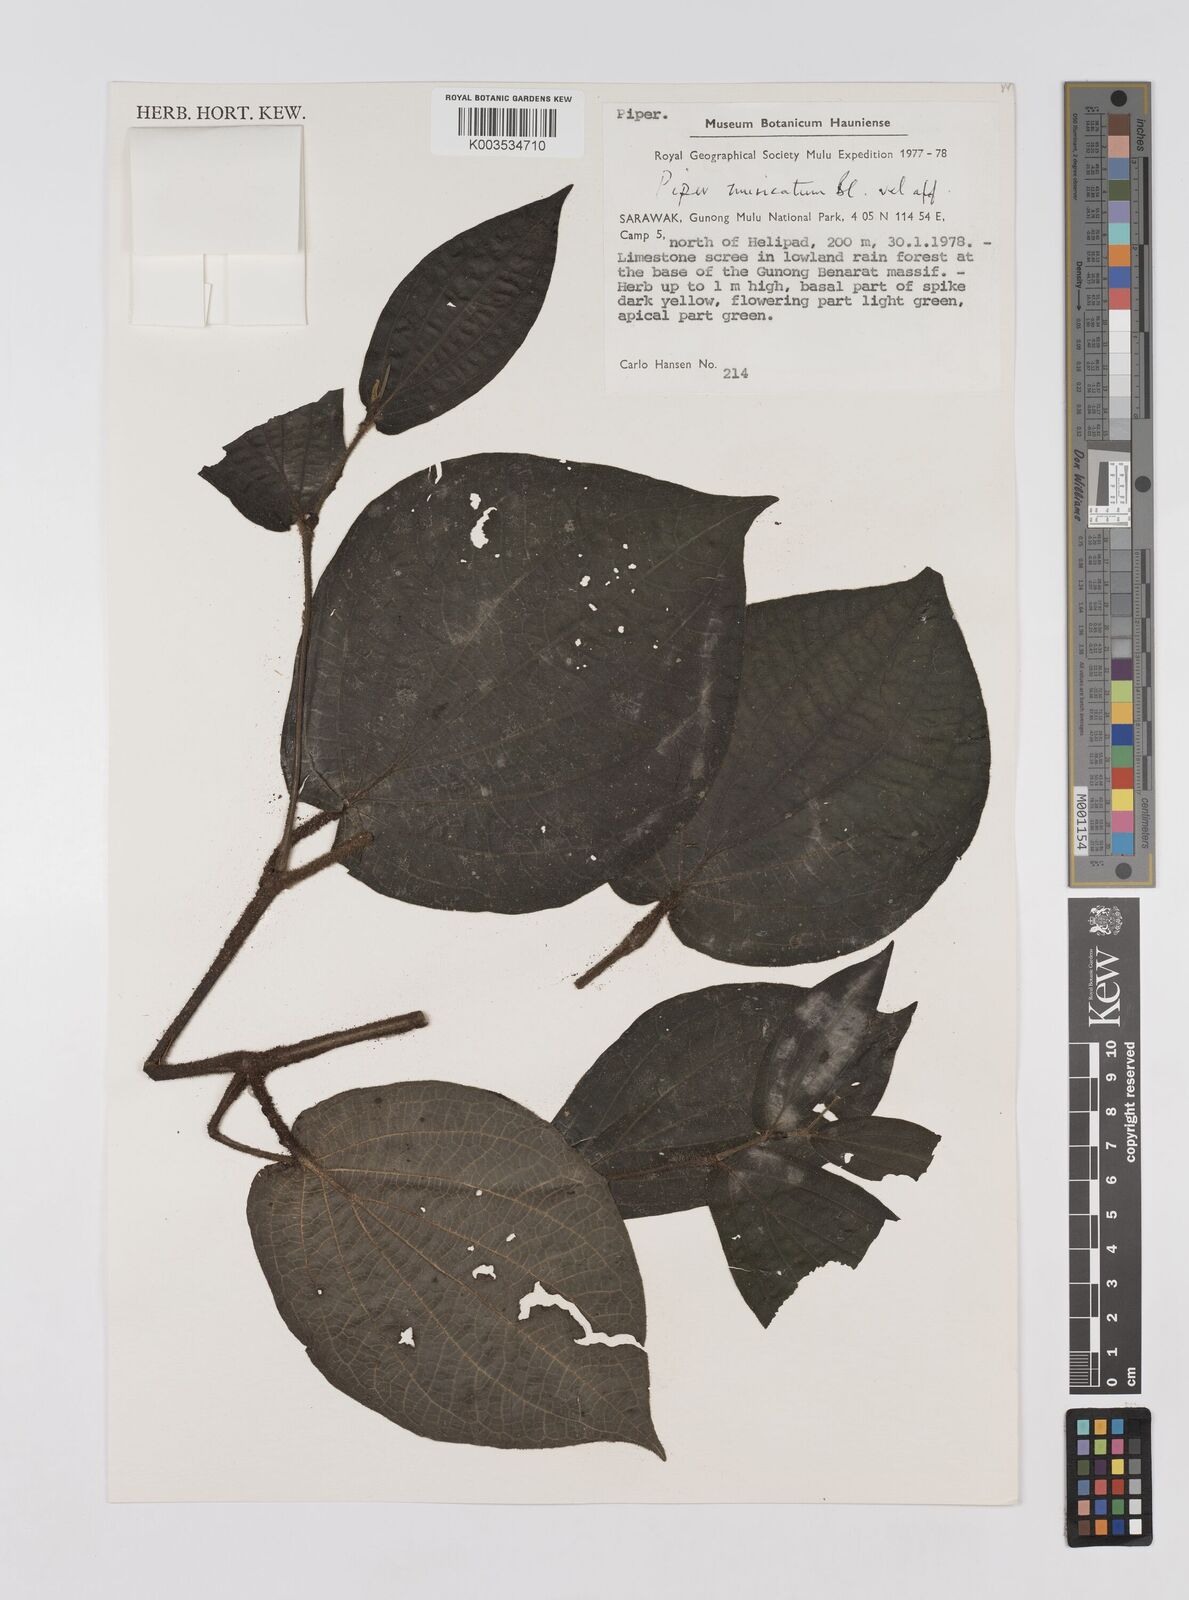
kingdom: Plantae
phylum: Tracheophyta
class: Magnoliopsida
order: Piperales
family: Piperaceae
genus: Piper
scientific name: Piper muricatum
